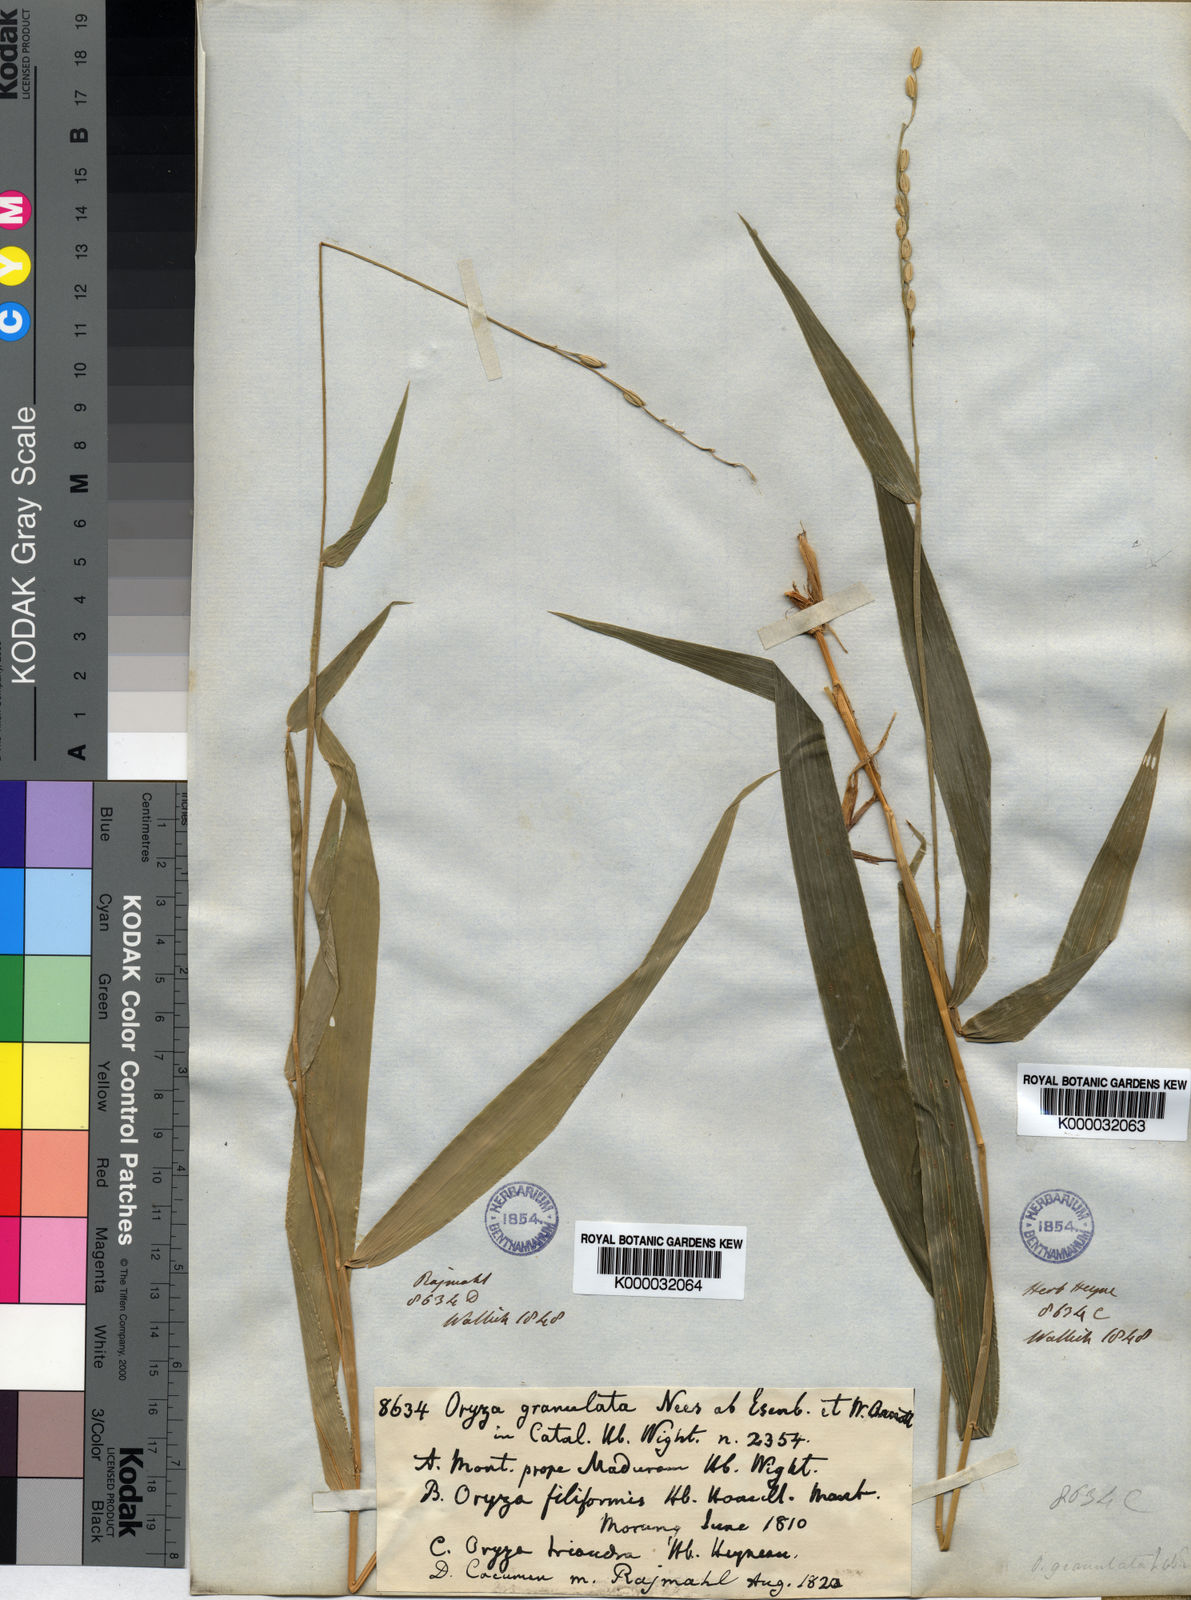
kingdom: Plantae
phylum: Tracheophyta
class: Liliopsida
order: Poales
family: Poaceae
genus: Oryza
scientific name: Oryza meyeriana
